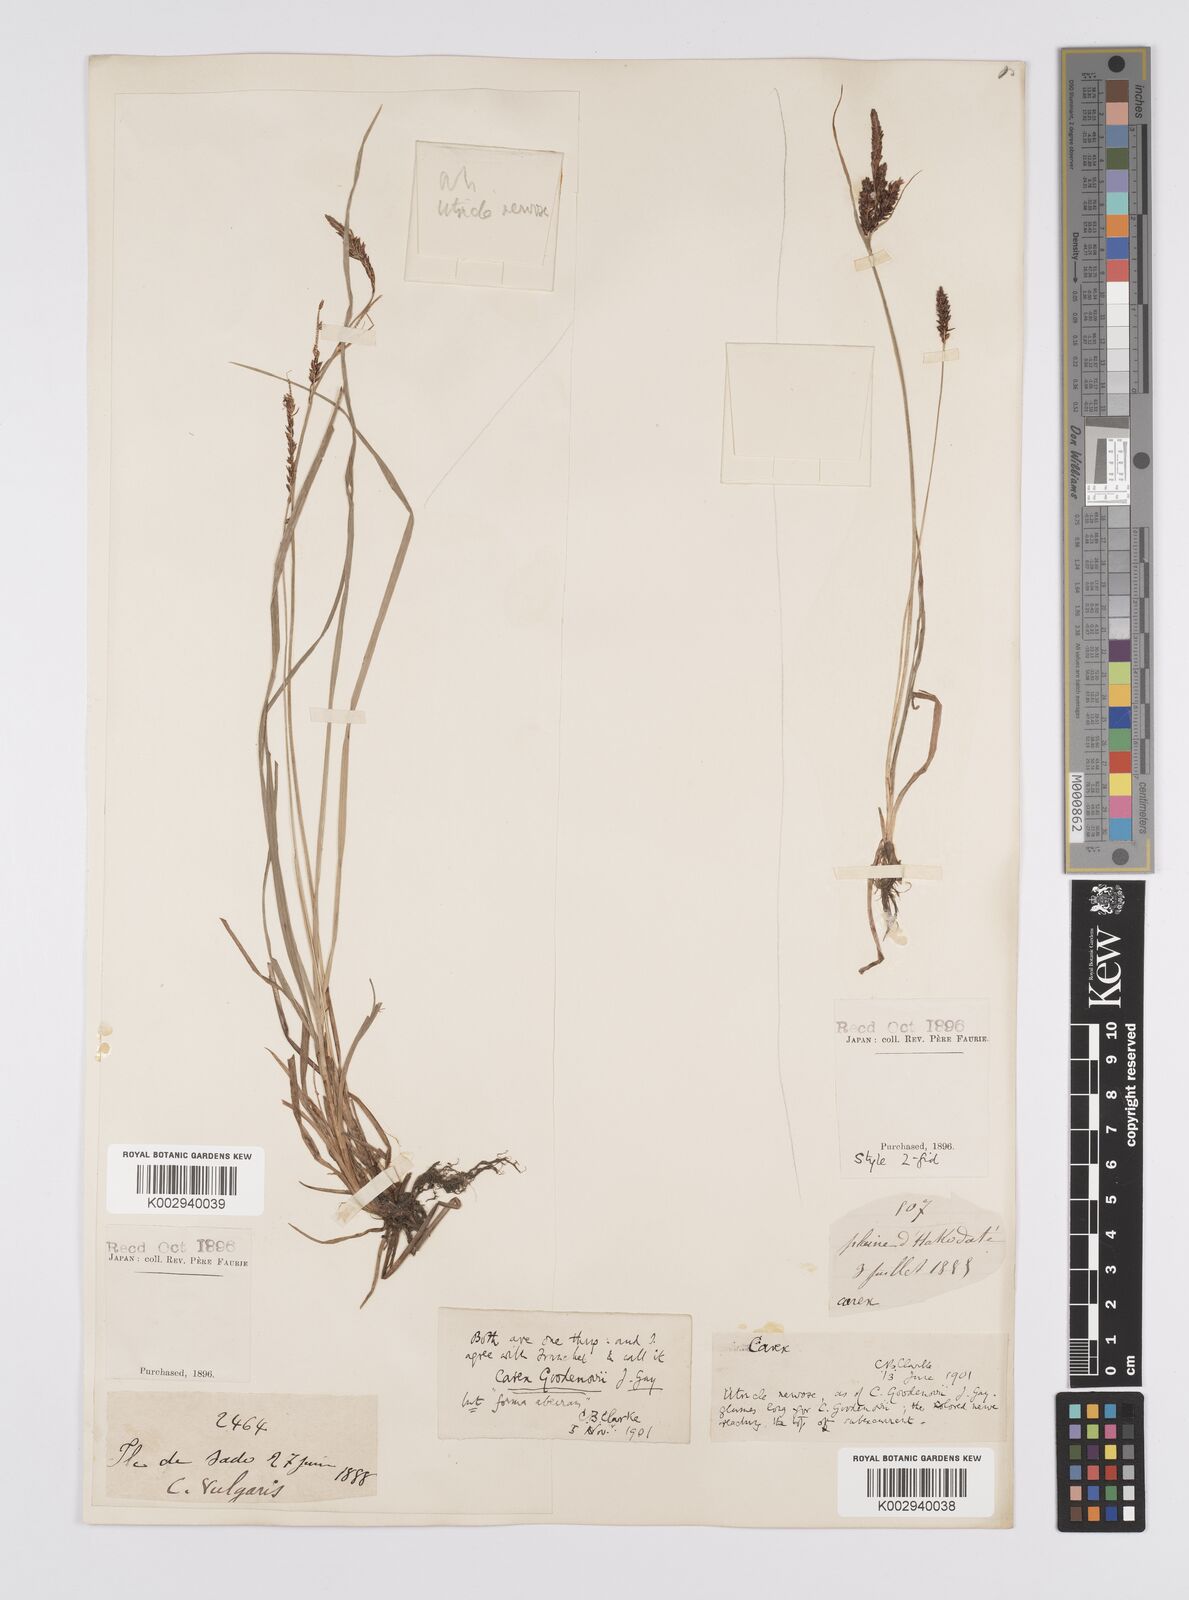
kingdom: Plantae
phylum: Tracheophyta
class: Liliopsida
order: Poales
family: Cyperaceae
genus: Carex
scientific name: Carex thunbergii
